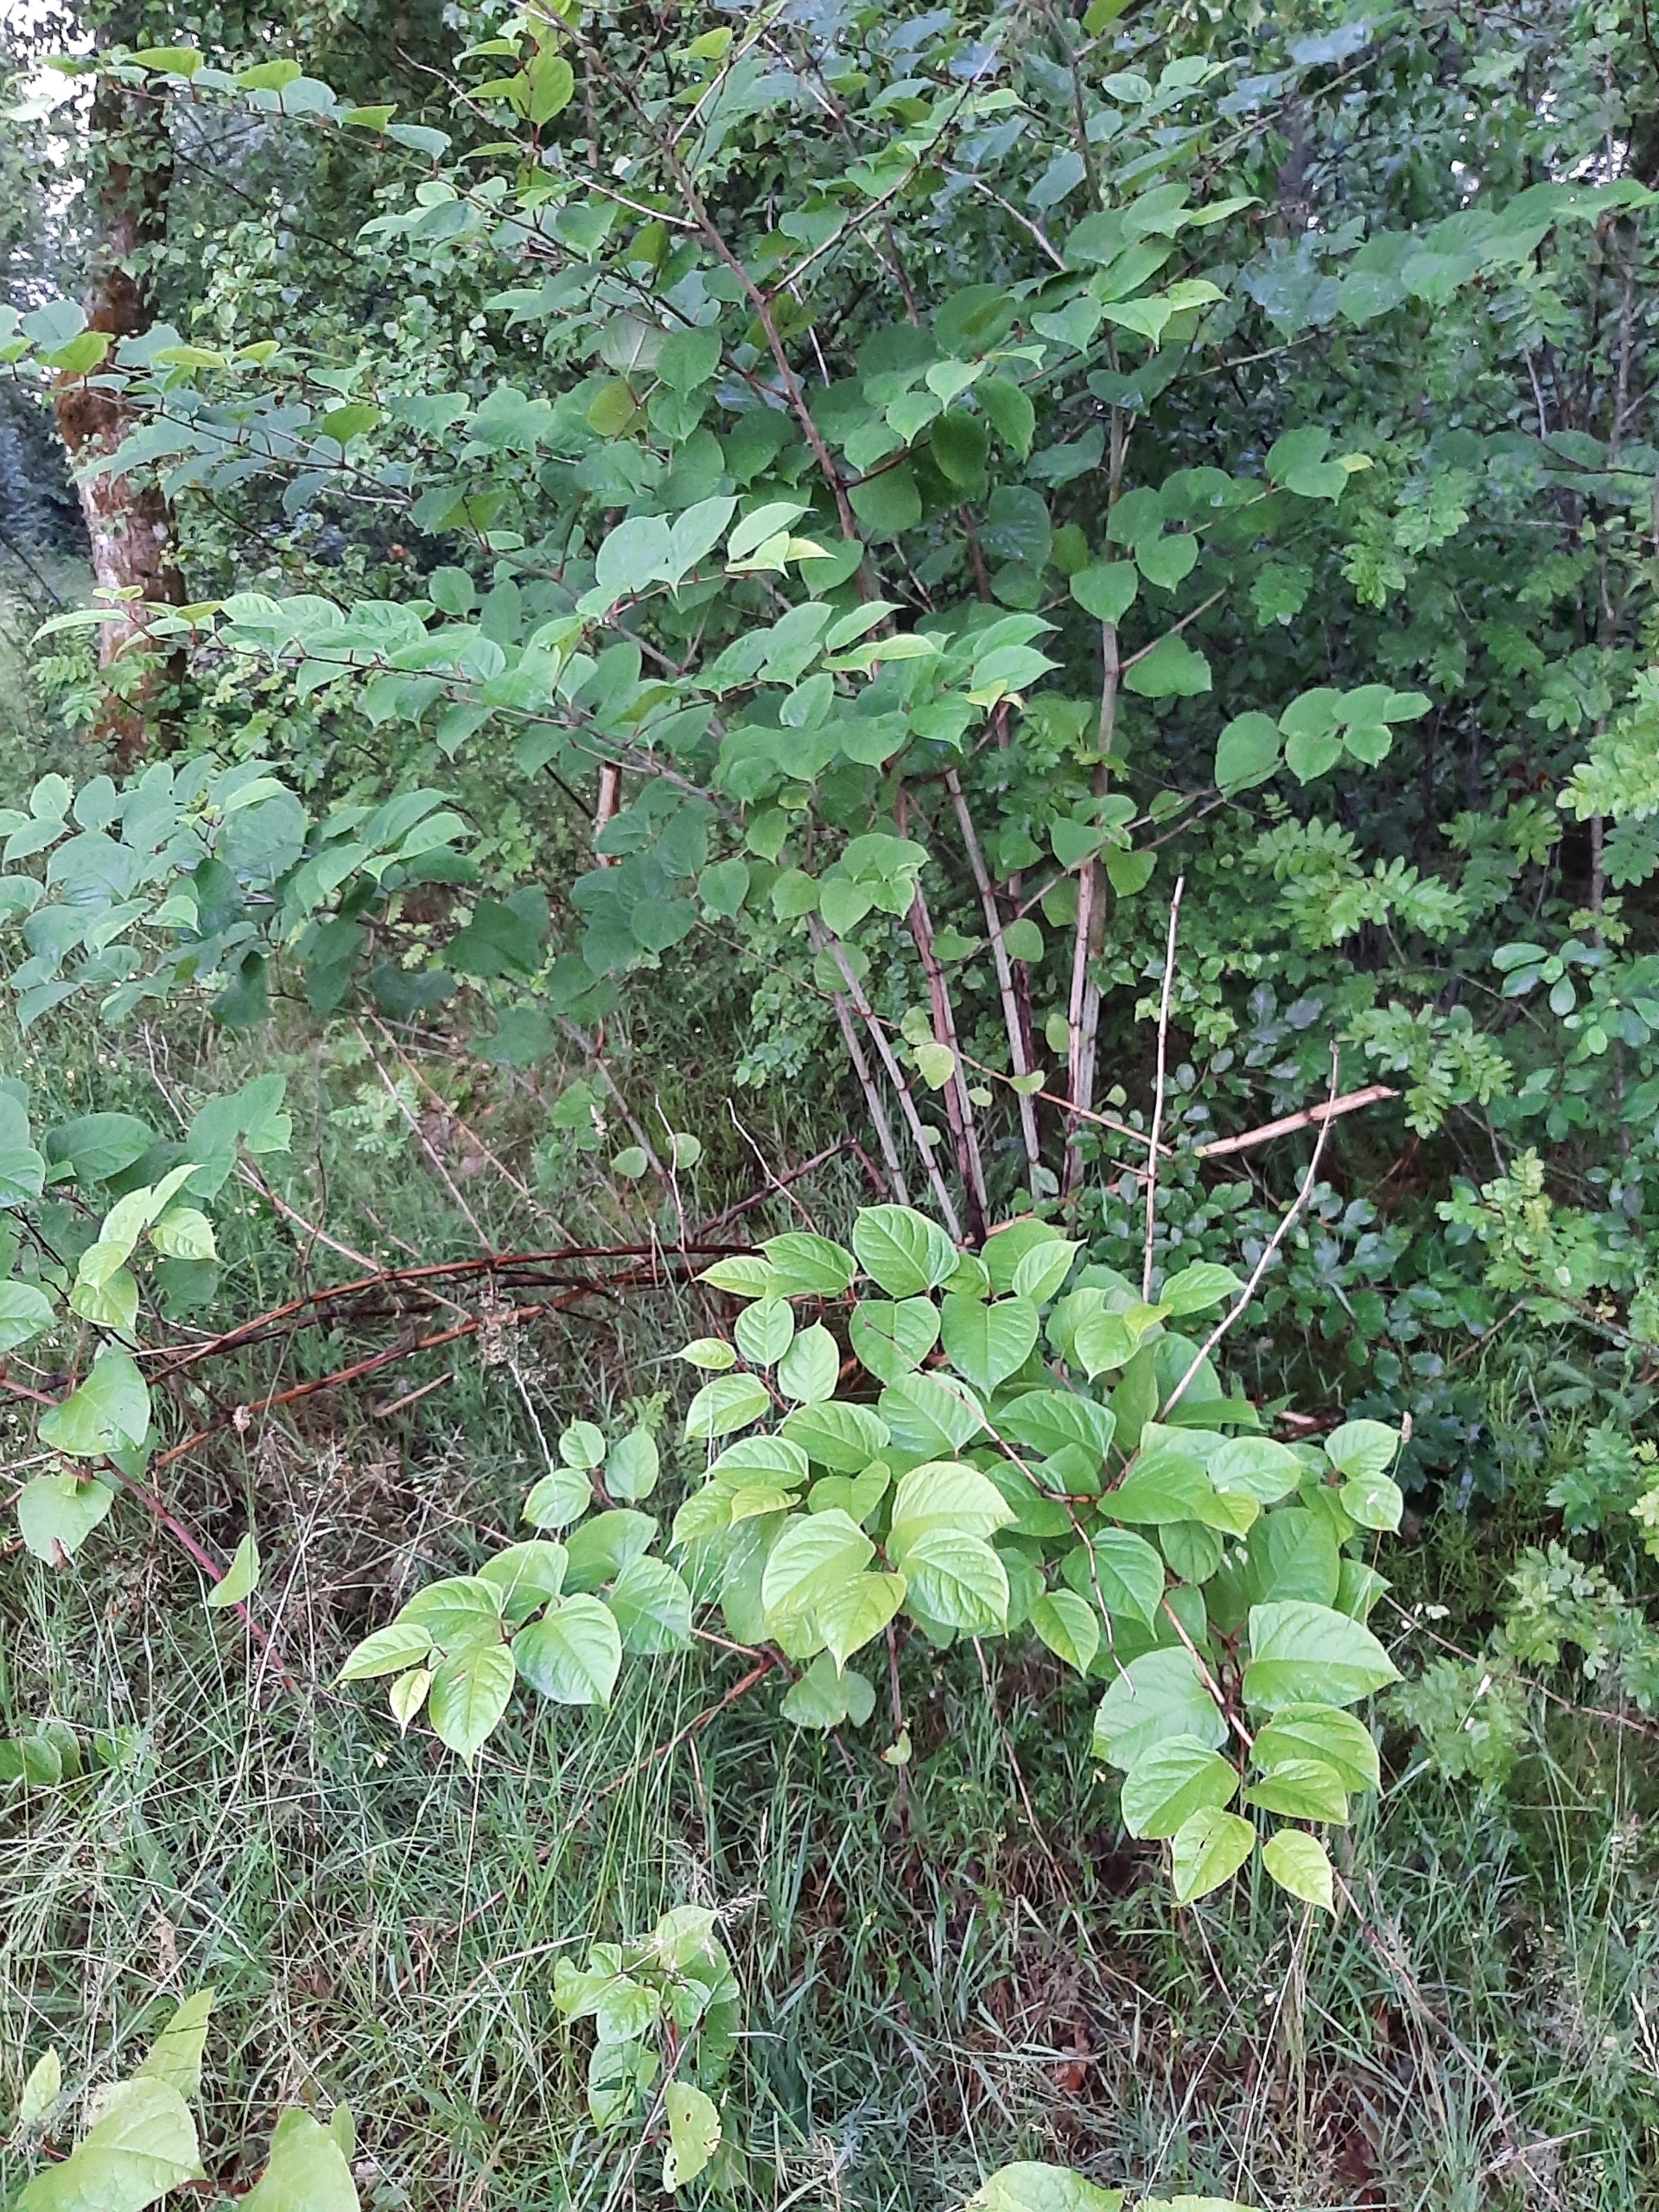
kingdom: Plantae
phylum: Tracheophyta
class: Magnoliopsida
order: Caryophyllales
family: Polygonaceae
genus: Reynoutria
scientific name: Reynoutria japonica
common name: Japan-pileurt
